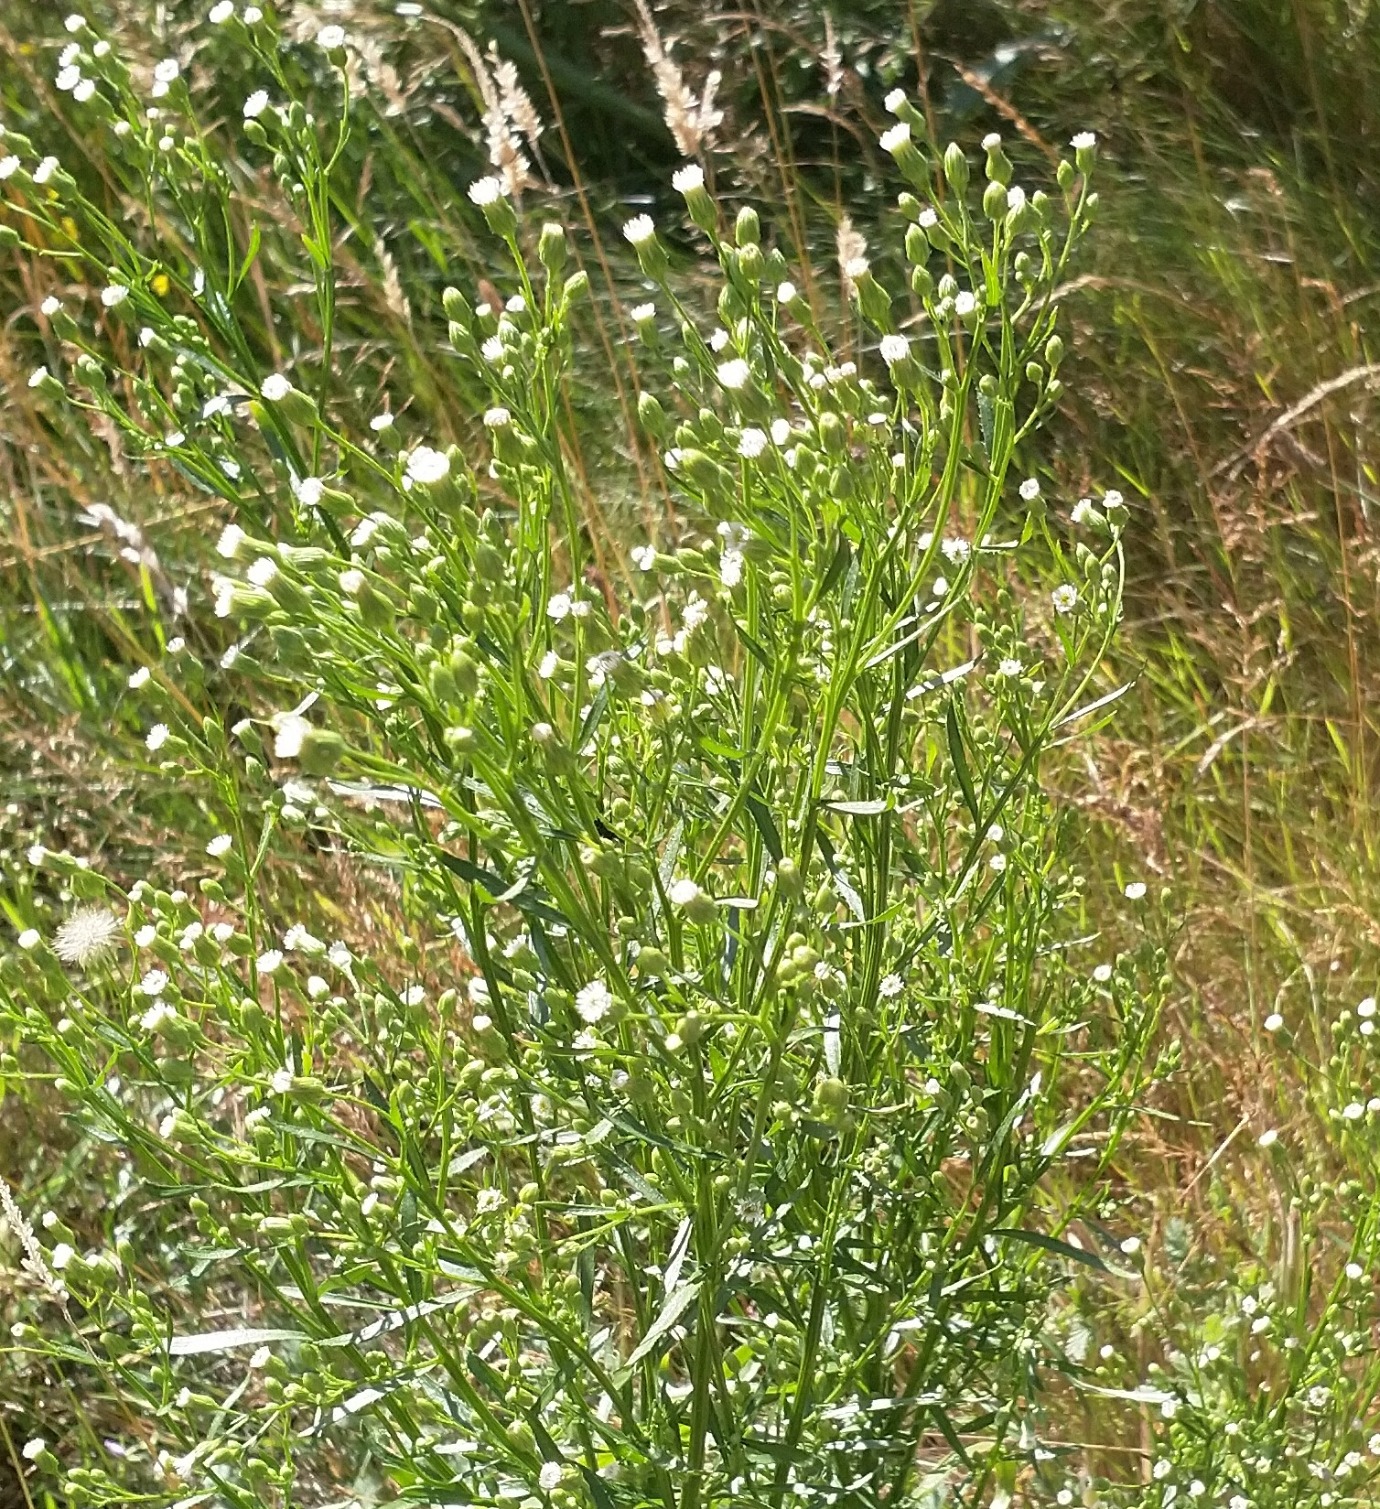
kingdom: Plantae
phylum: Tracheophyta
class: Magnoliopsida
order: Asterales
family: Asteraceae
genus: Erigeron
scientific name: Erigeron canadensis
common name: Kanadisk bakkestjerne
